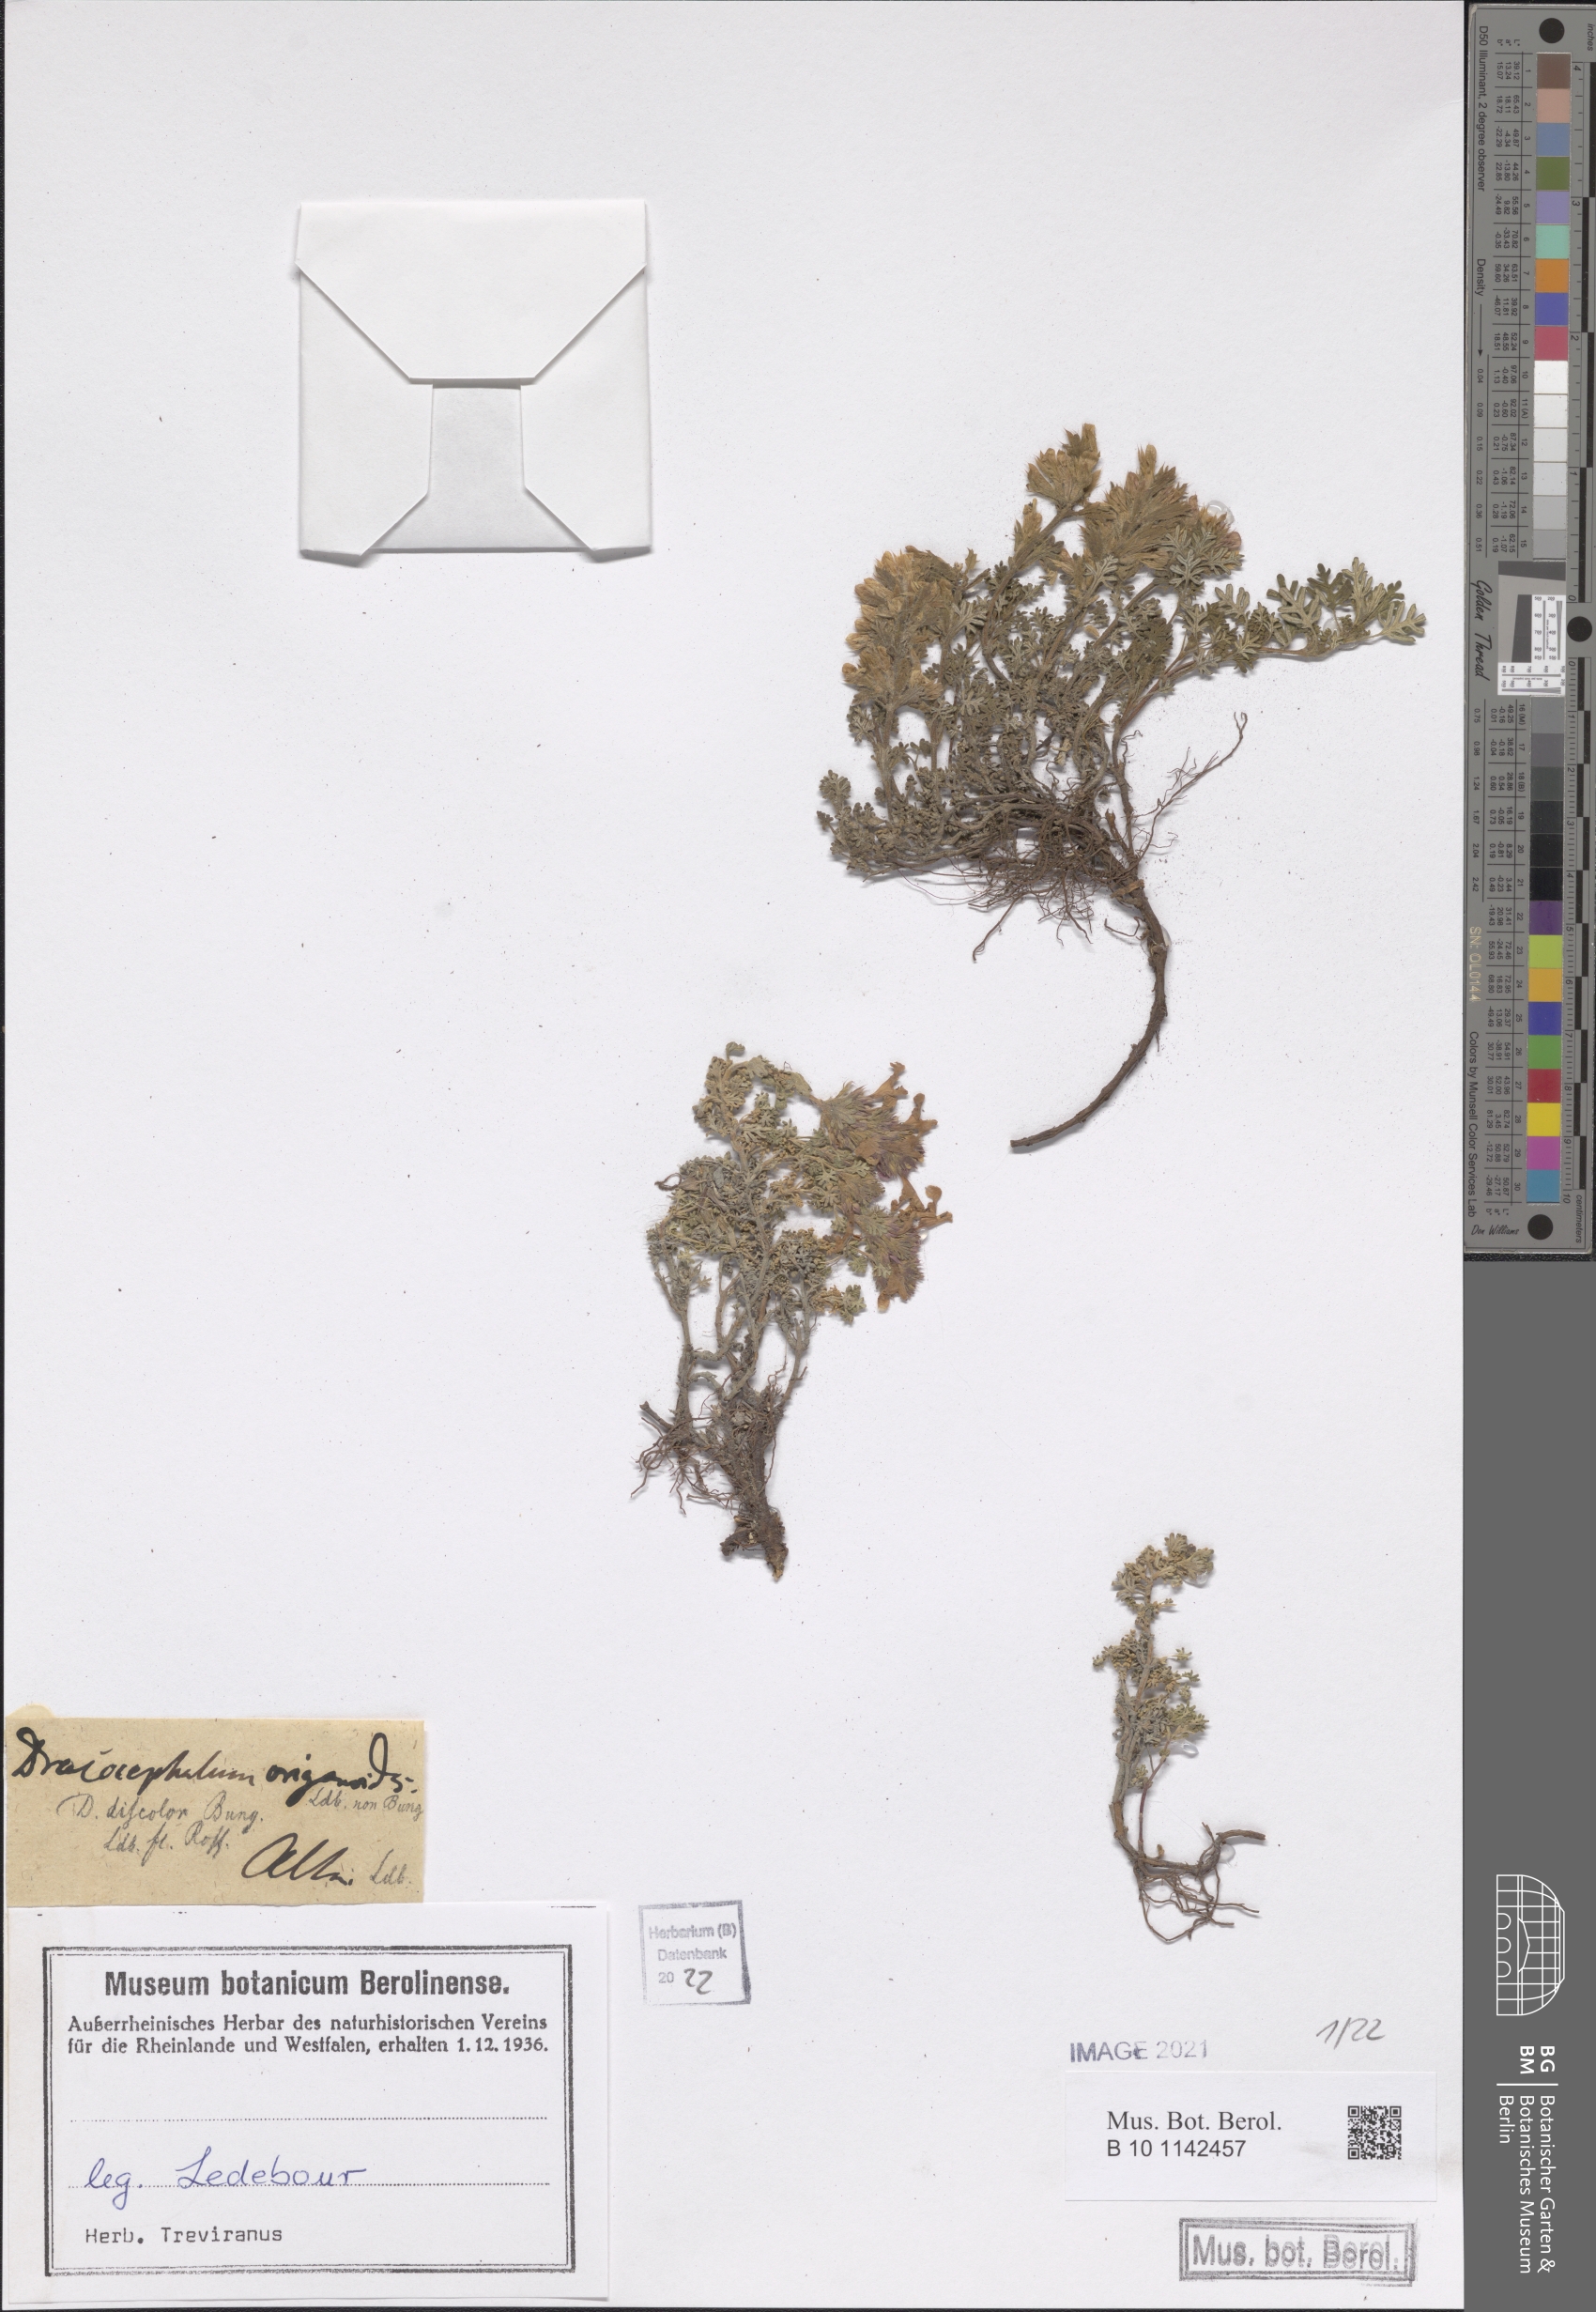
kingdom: Plantae
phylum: Tracheophyta
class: Magnoliopsida
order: Lamiales
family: Lamiaceae
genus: Dracocephalum
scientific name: Dracocephalum origanoides
